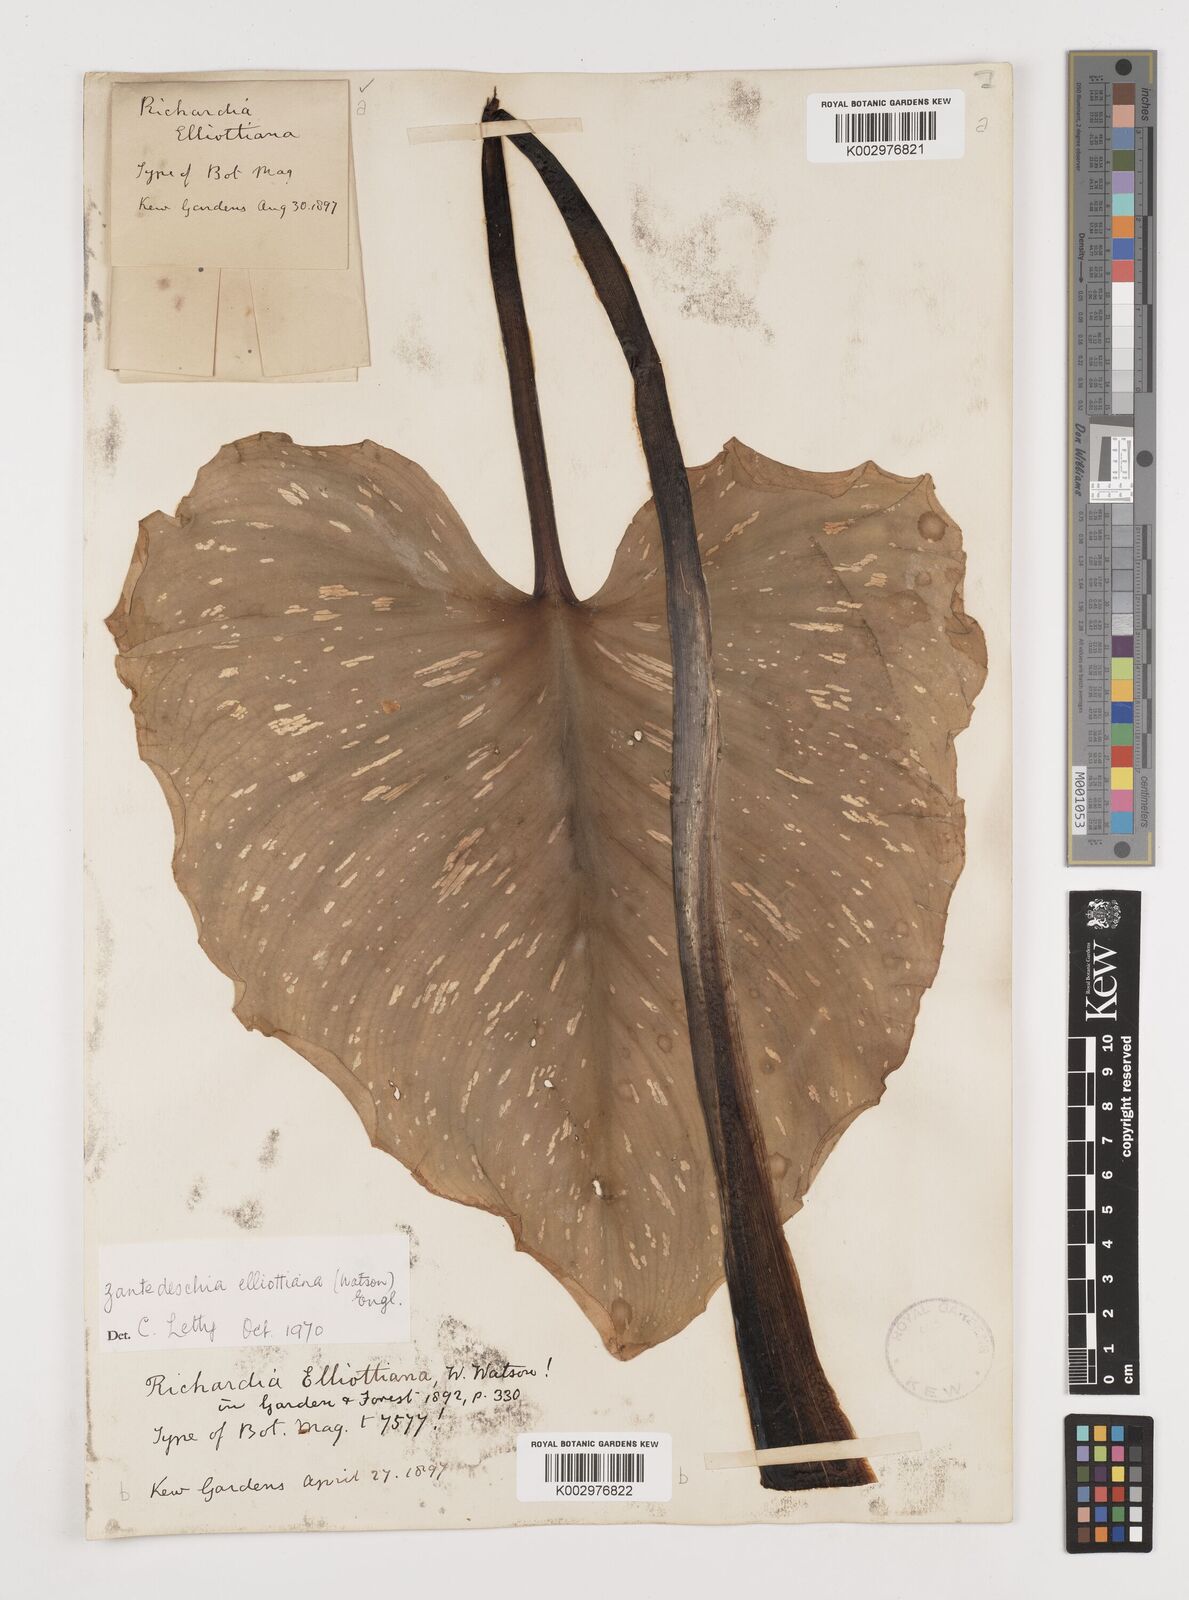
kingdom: Plantae
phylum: Tracheophyta
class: Liliopsida
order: Alismatales
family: Araceae
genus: Zantedeschia
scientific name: Zantedeschia elliottiana
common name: Yellow calla
